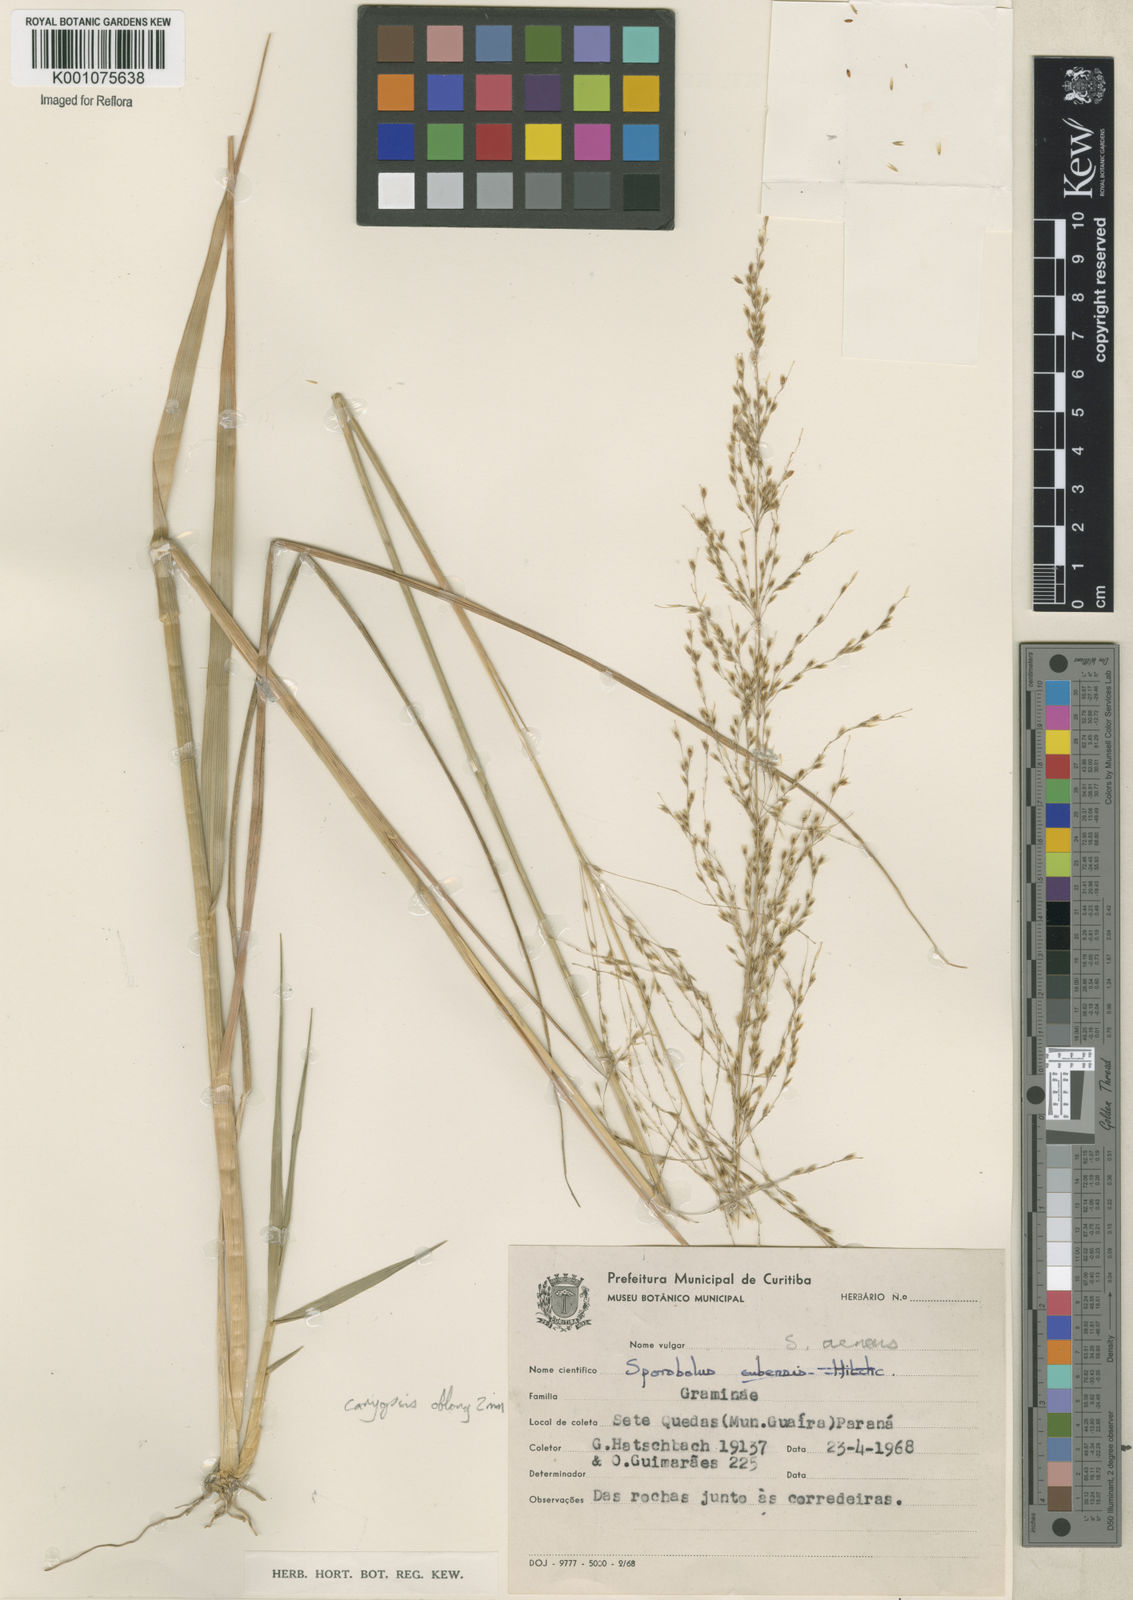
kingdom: Plantae
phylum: Tracheophyta
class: Liliopsida
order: Poales
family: Poaceae
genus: Sporobolus
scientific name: Sporobolus aeneus
